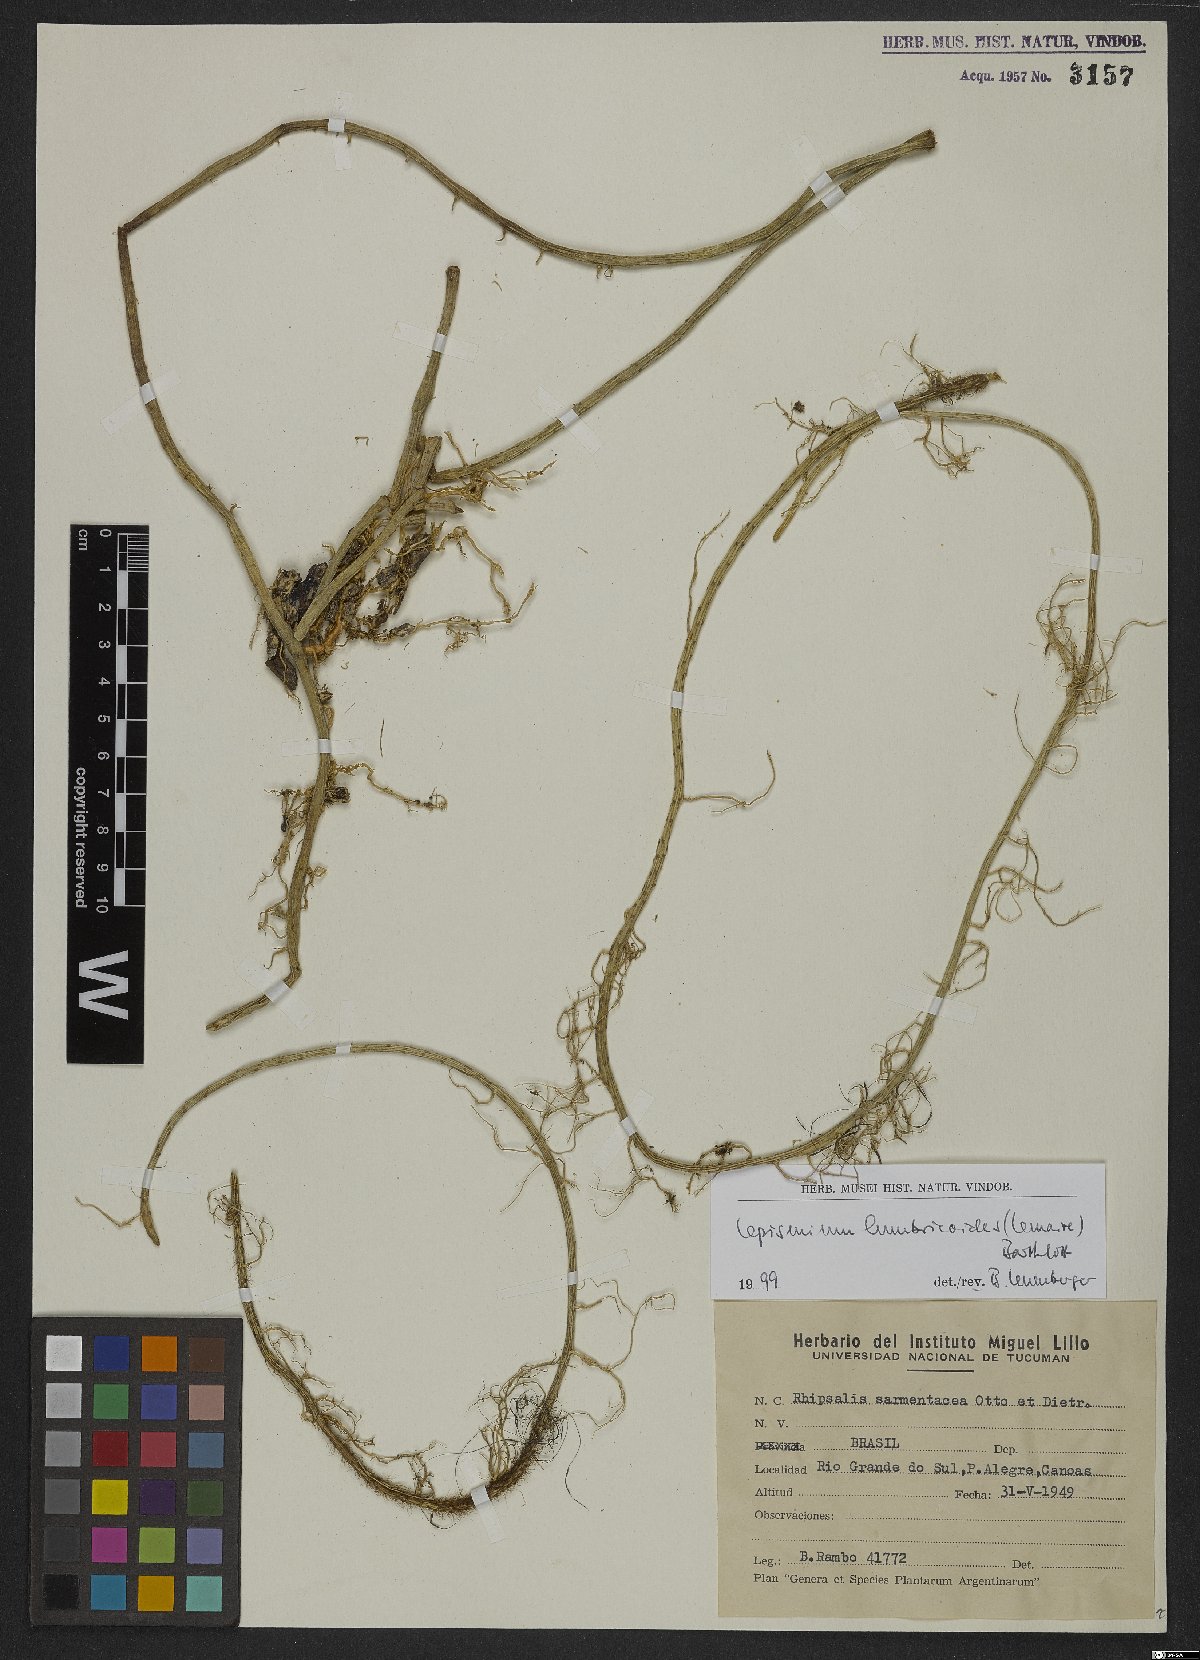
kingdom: Plantae
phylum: Tracheophyta
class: Magnoliopsida
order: Caryophyllales
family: Cactaceae
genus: Lepismium
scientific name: Lepismium lumbricoides
